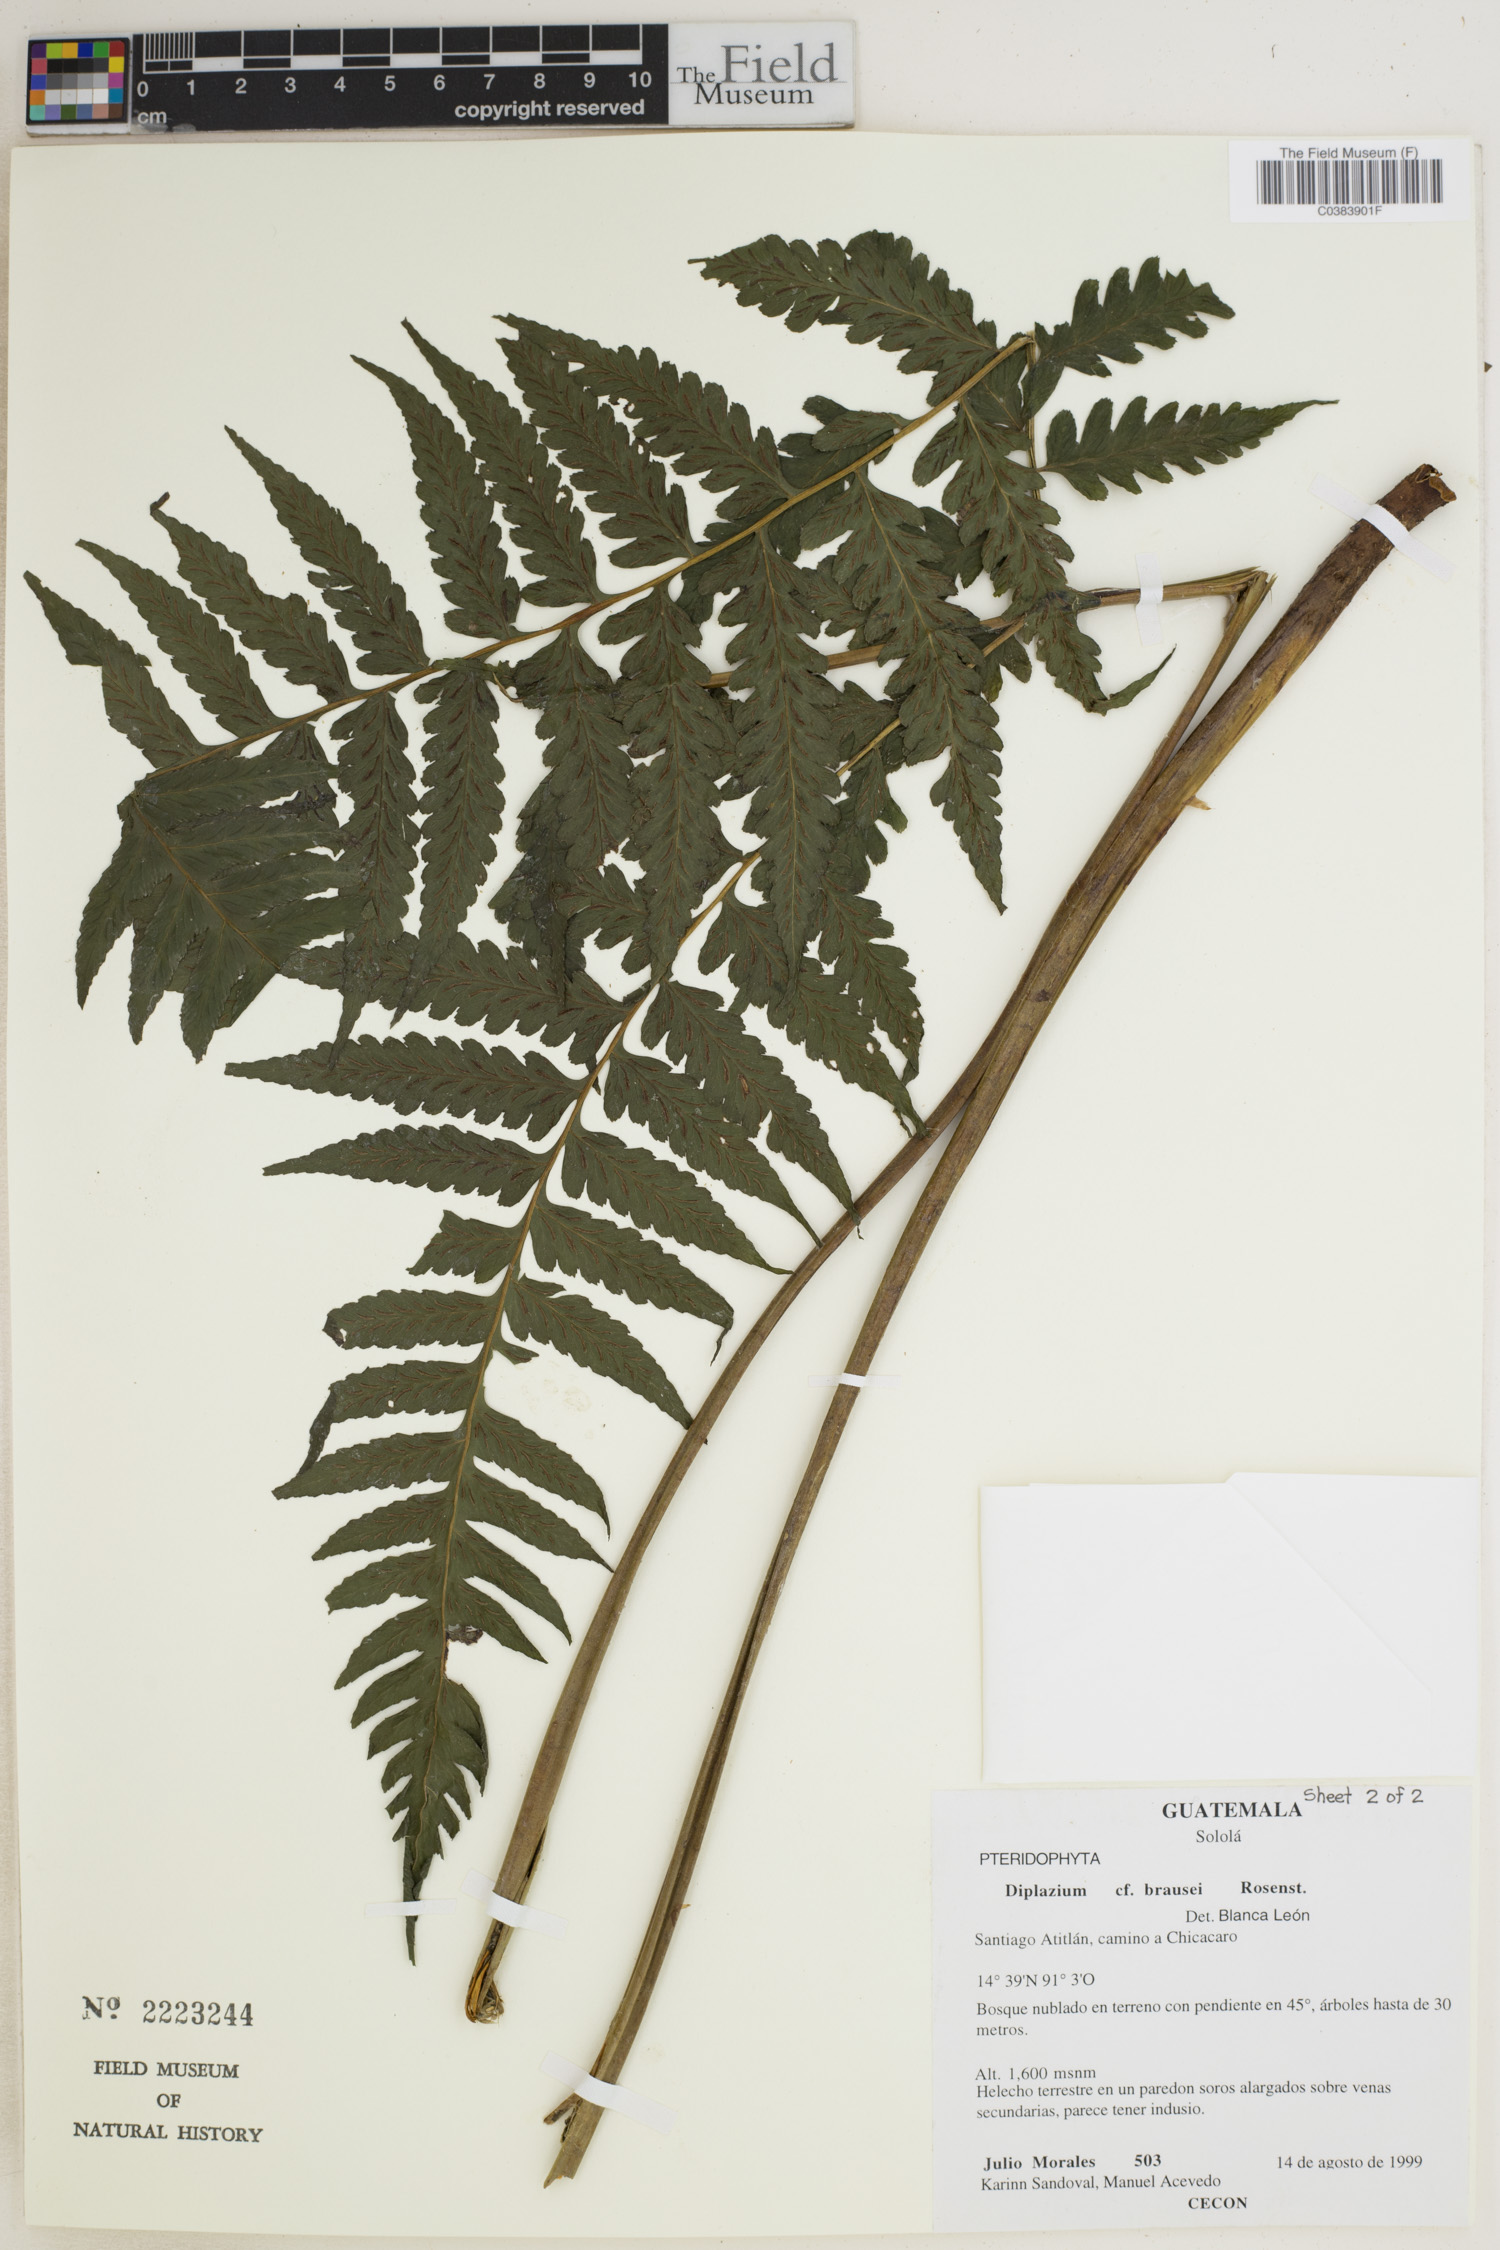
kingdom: Plantae
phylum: Tracheophyta
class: Polypodiopsida
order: Polypodiales
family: Athyriaceae
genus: Diplazium
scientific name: Diplazium brausei
